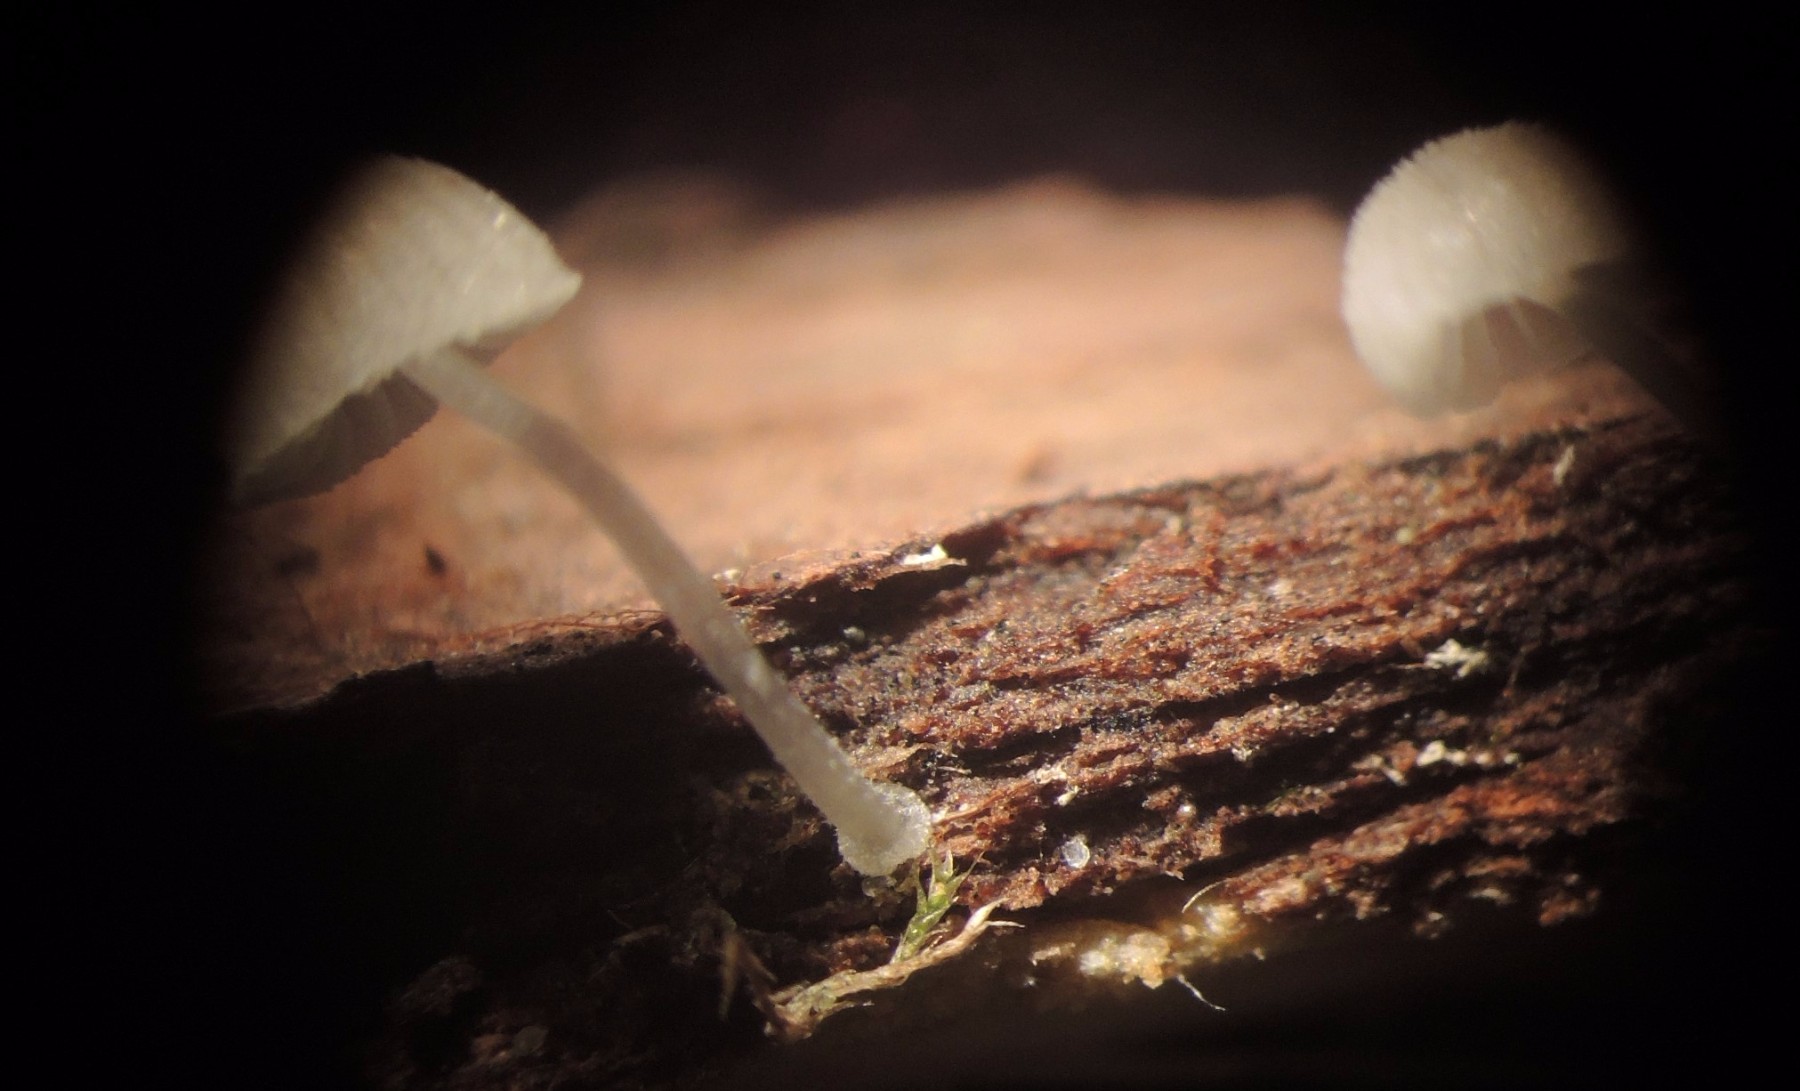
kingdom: Fungi
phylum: Basidiomycota
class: Agaricomycetes
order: Agaricales
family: Mycenaceae
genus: Mycena
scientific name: Mycena tenerrima
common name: pudret huesvamp
